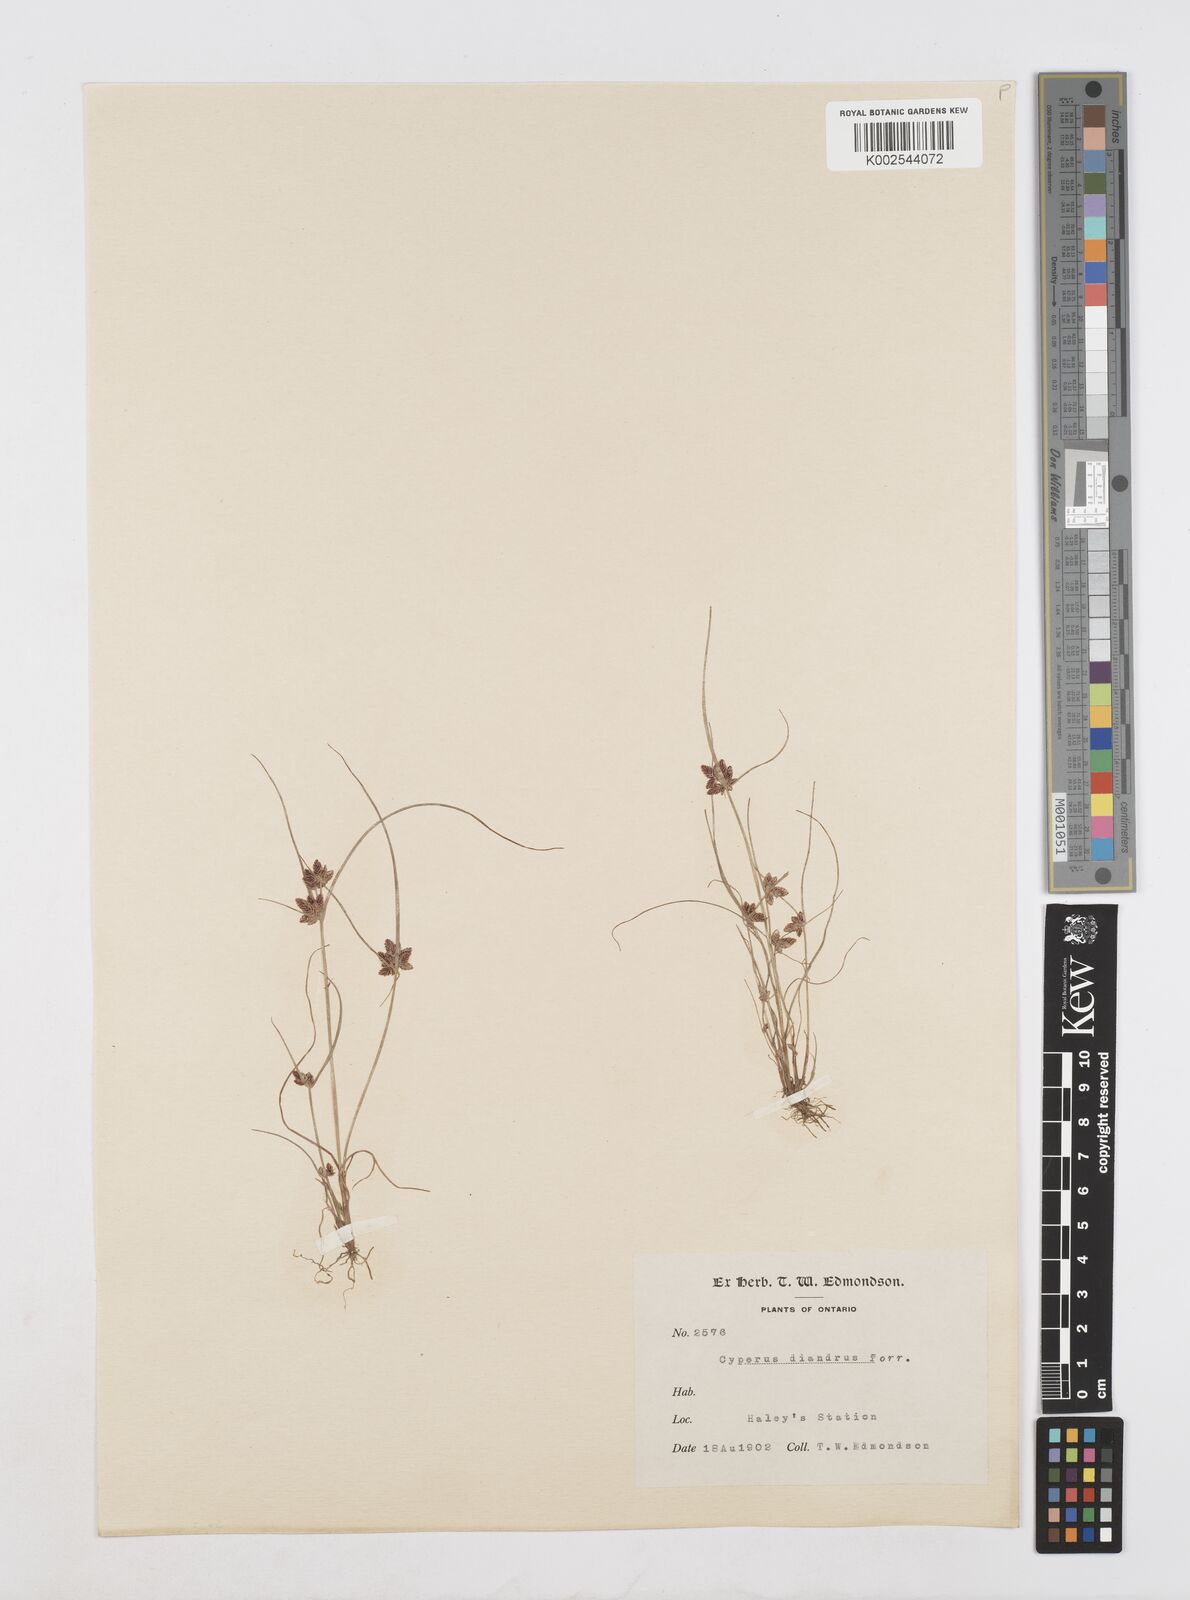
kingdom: Plantae
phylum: Tracheophyta
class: Liliopsida
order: Poales
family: Cyperaceae
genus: Cyperus
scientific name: Cyperus diandrus
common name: Low cyperus
